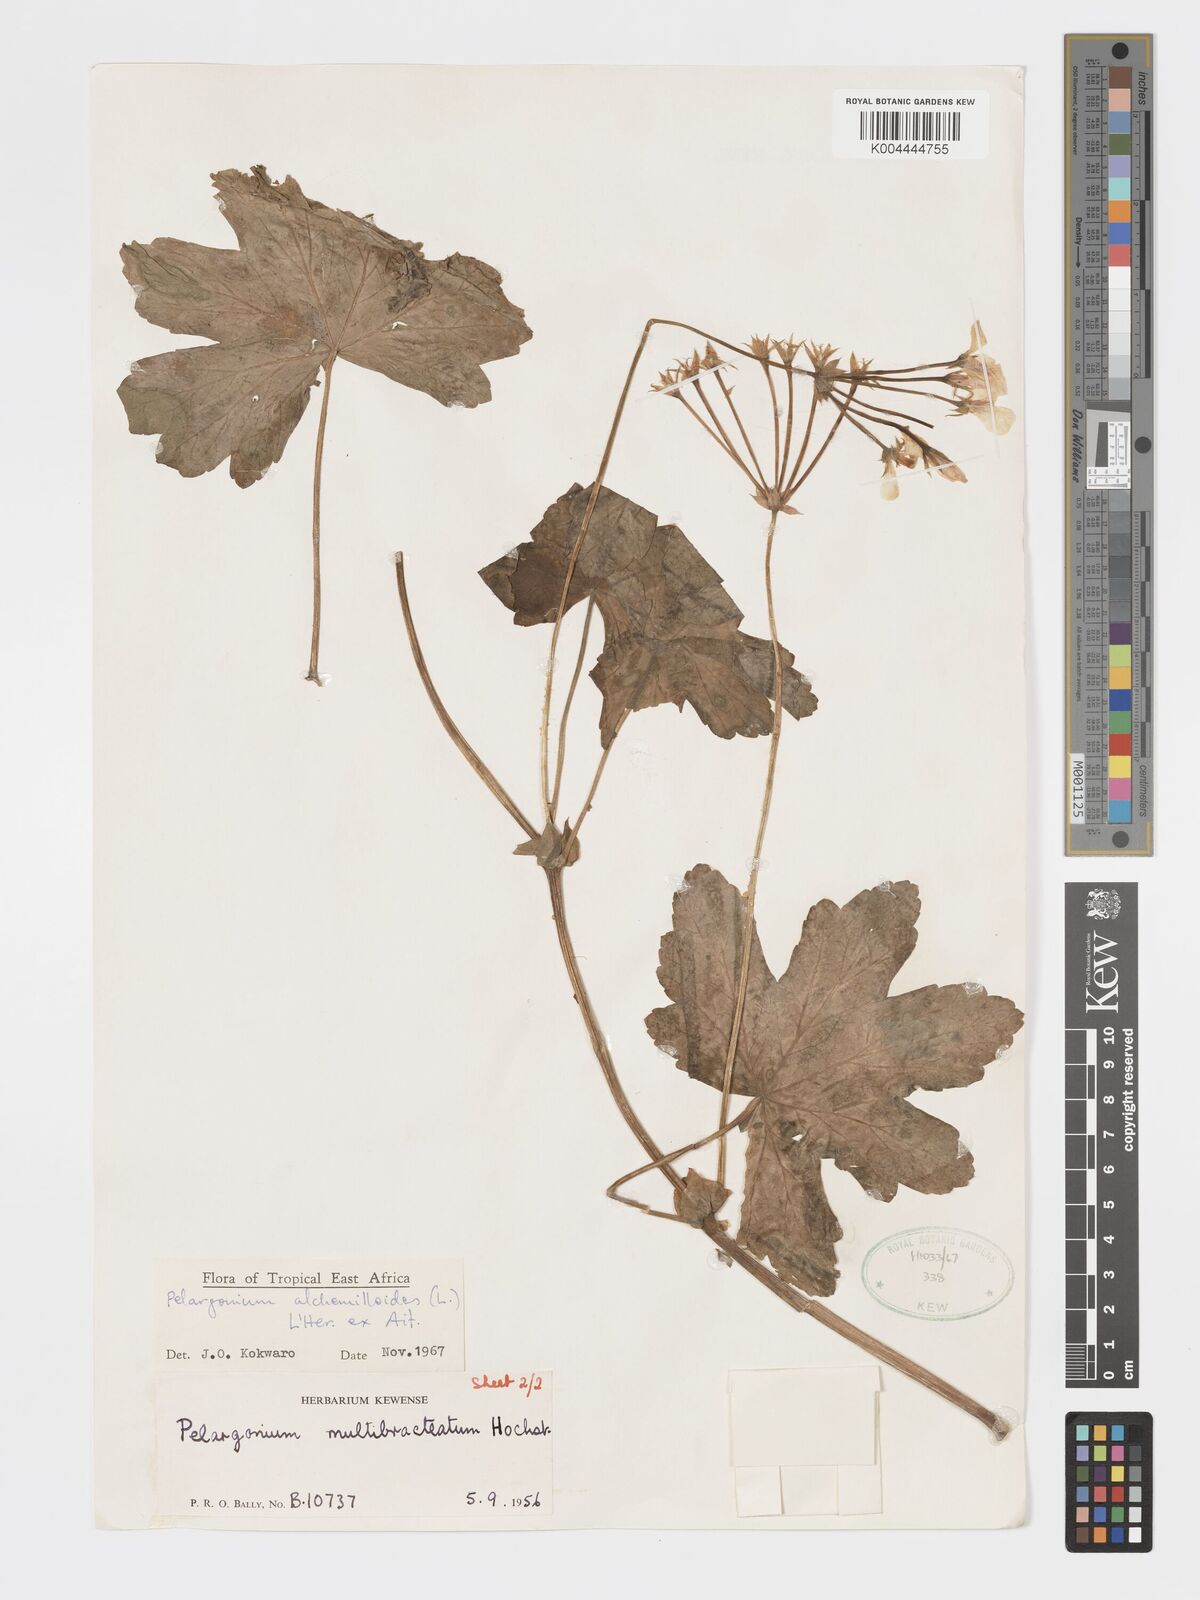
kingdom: Plantae
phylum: Tracheophyta
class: Magnoliopsida
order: Geraniales
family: Geraniaceae
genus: Pelargonium
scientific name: Pelargonium alchemilloides
